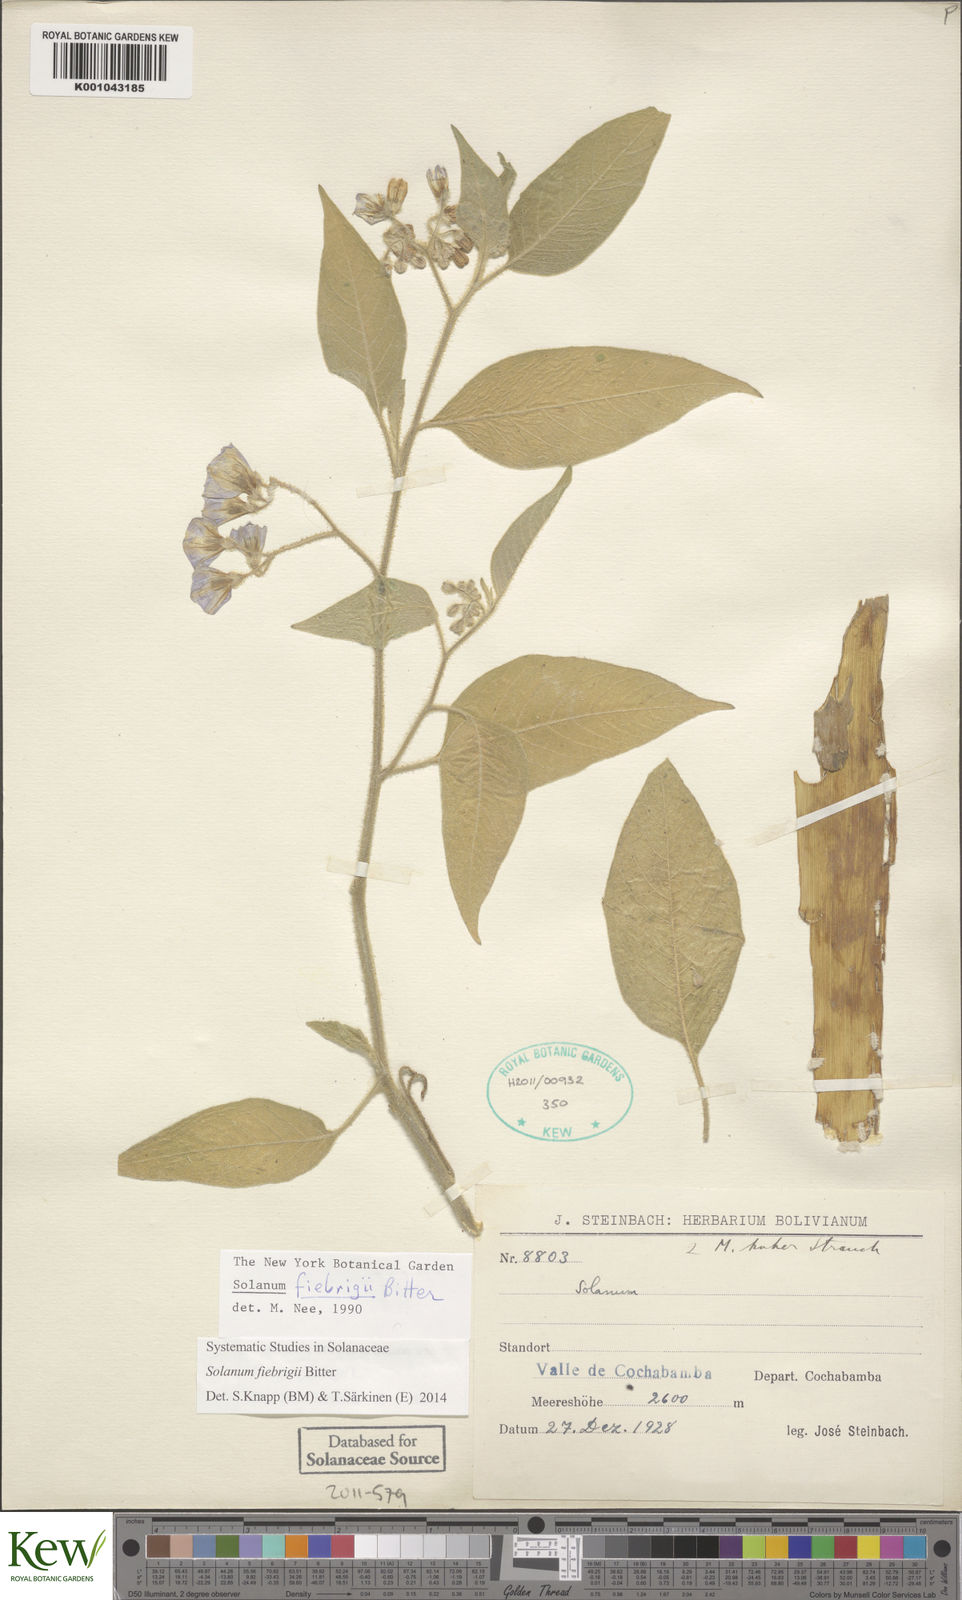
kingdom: Plantae
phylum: Tracheophyta
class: Magnoliopsida
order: Solanales
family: Solanaceae
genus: Solanum
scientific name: Solanum fiebrigii
